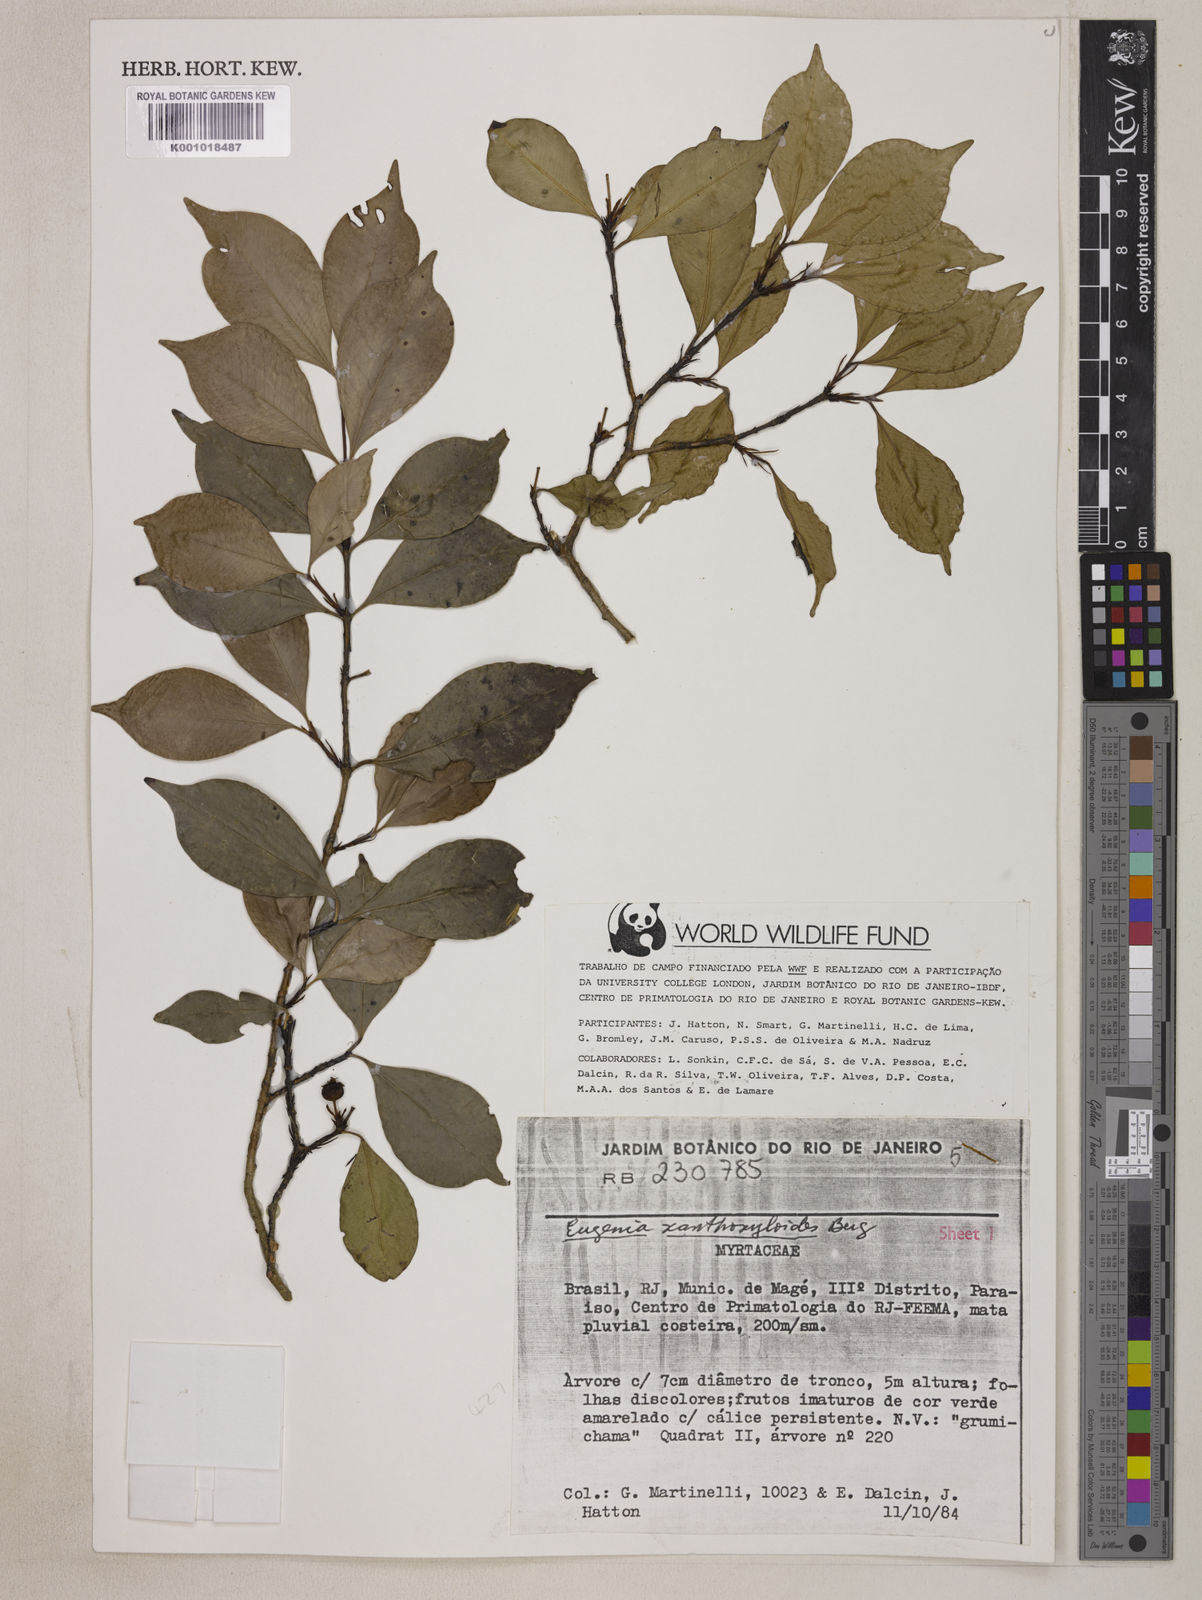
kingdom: Plantae
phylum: Tracheophyta
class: Magnoliopsida
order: Myrtales
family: Myrtaceae
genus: Eugenia
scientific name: Eugenia xanthoxyloides
